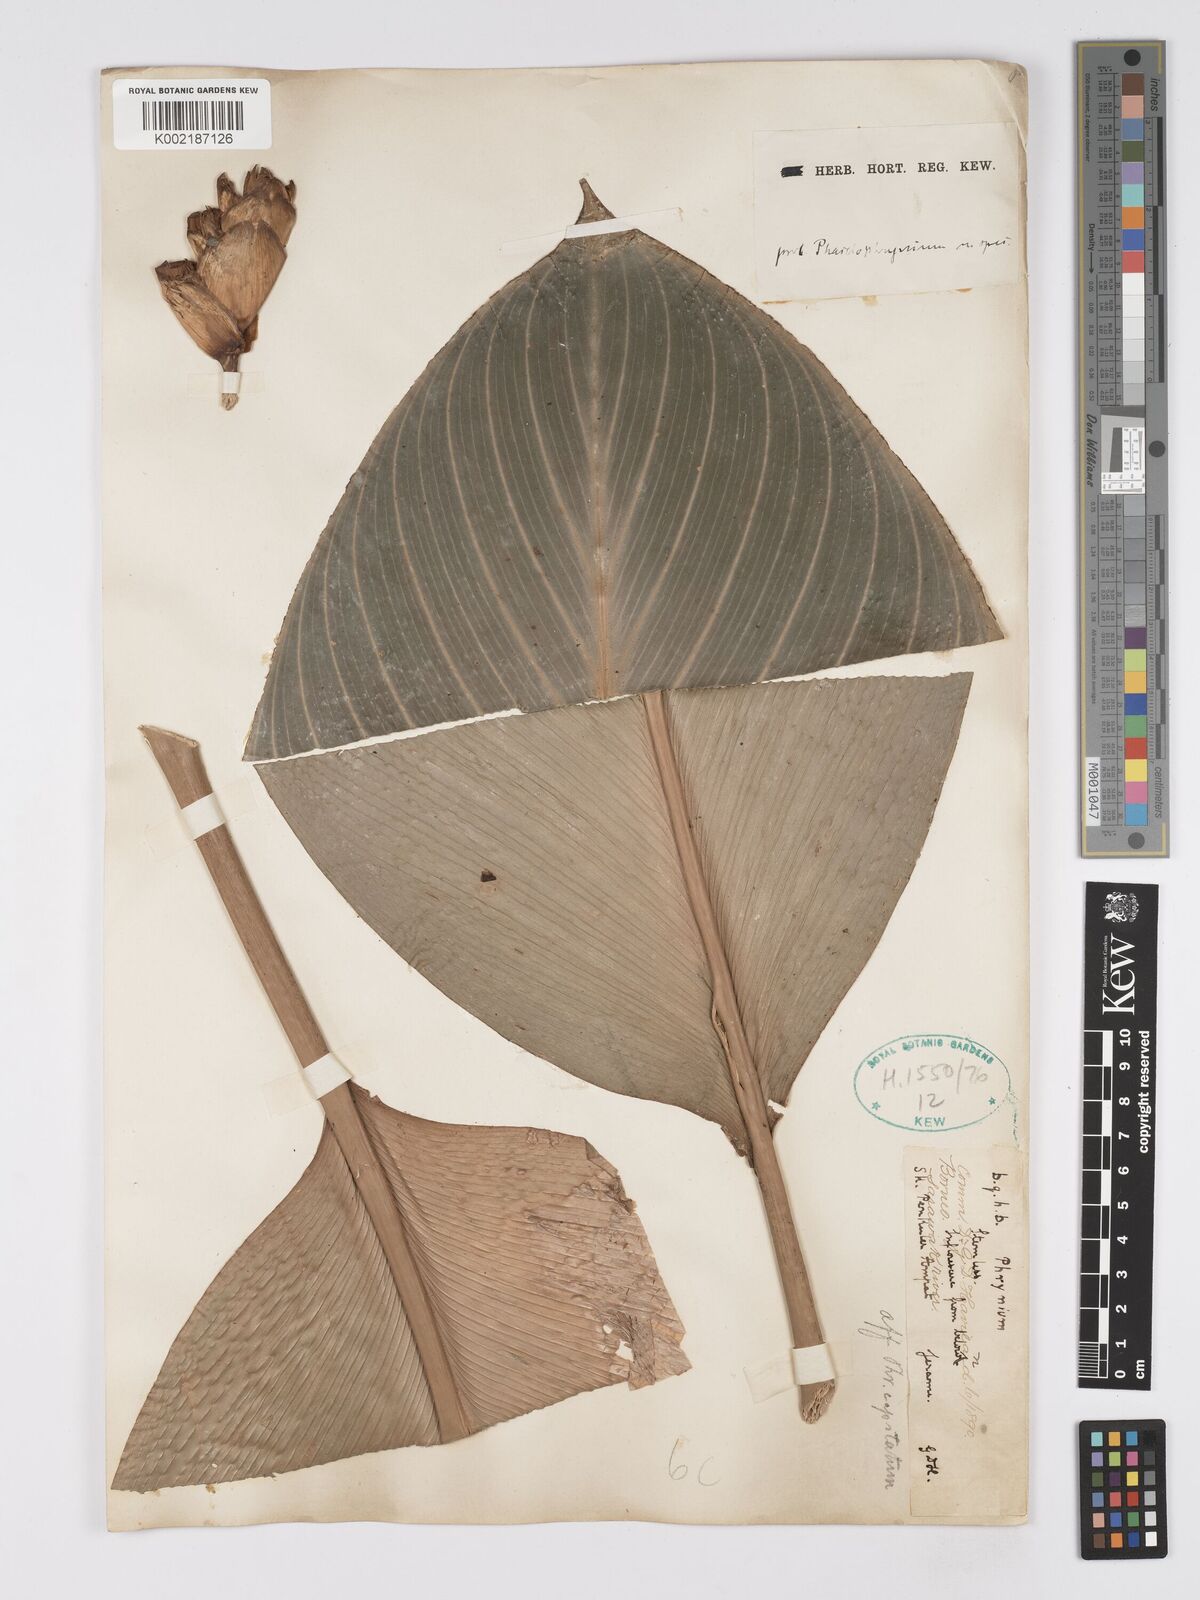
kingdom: Plantae
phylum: Tracheophyta
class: Liliopsida
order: Zingiberales
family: Marantaceae
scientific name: Marantaceae
